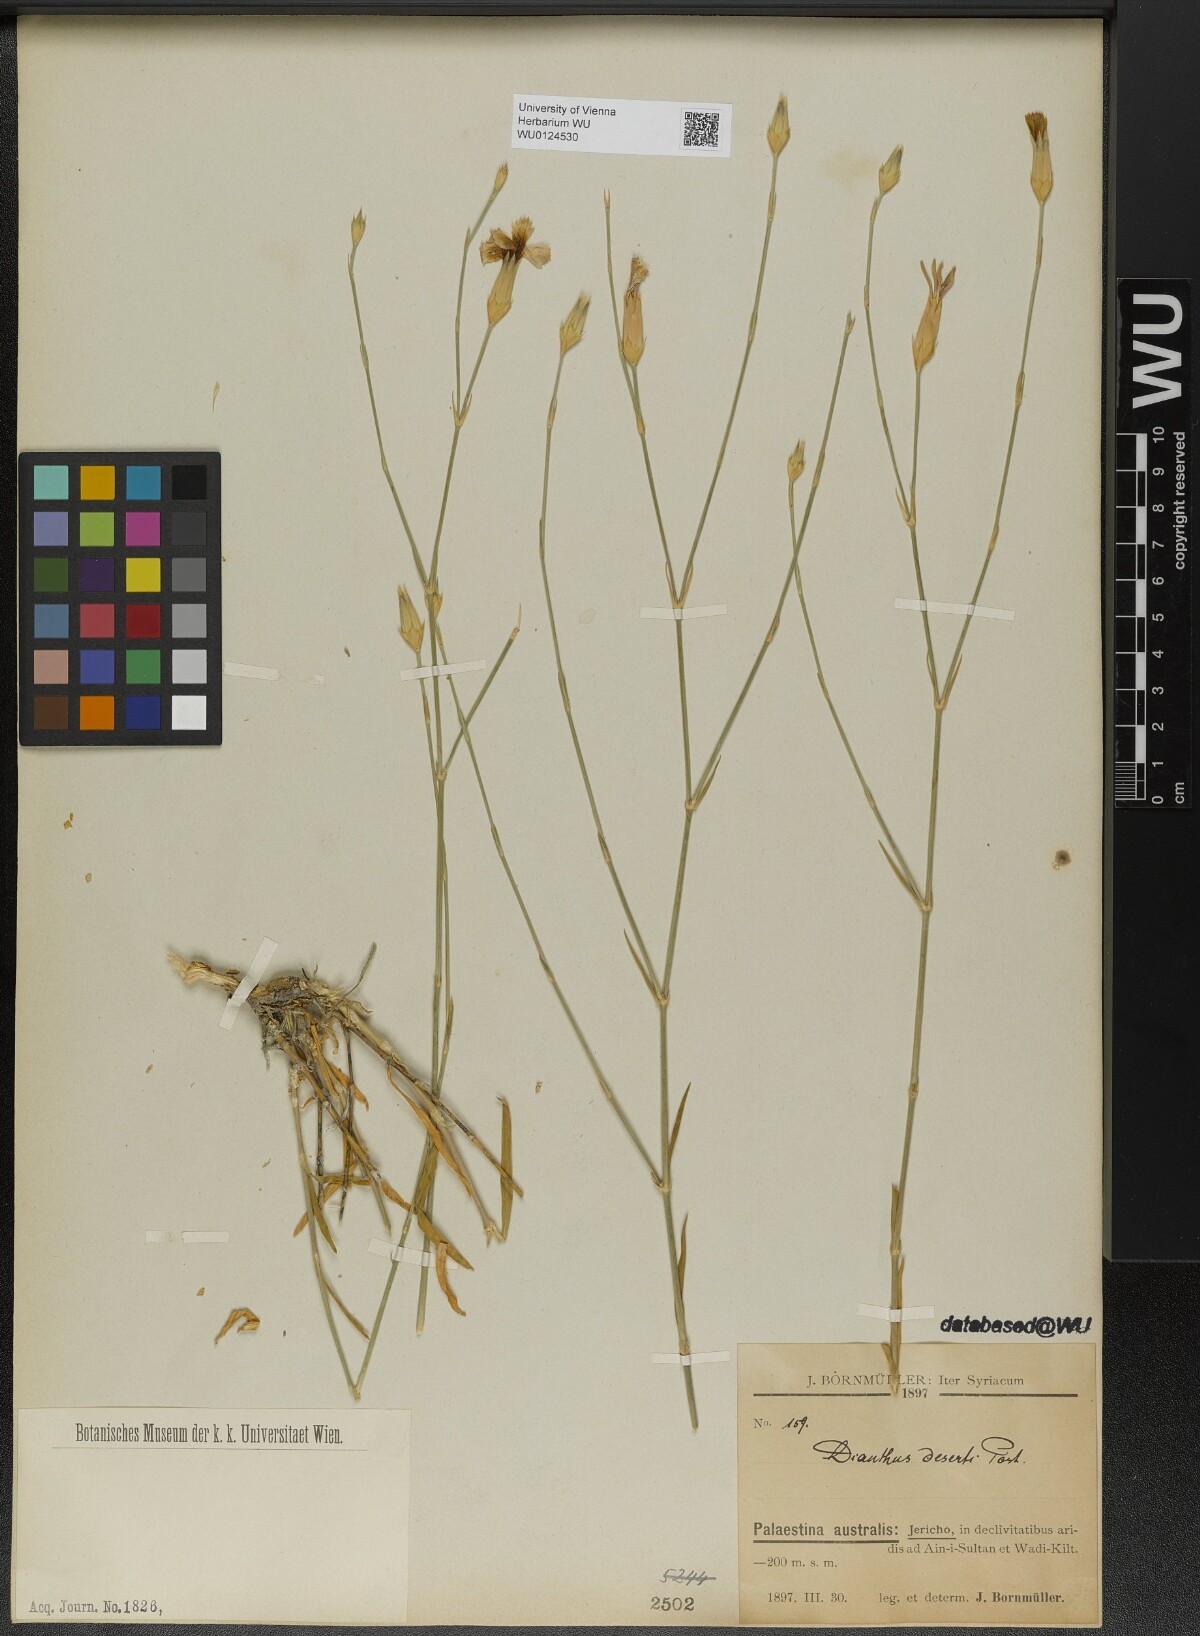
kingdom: Plantae
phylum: Tracheophyta
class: Magnoliopsida
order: Caryophyllales
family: Caryophyllaceae
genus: Dianthus
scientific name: Dianthus deserti
